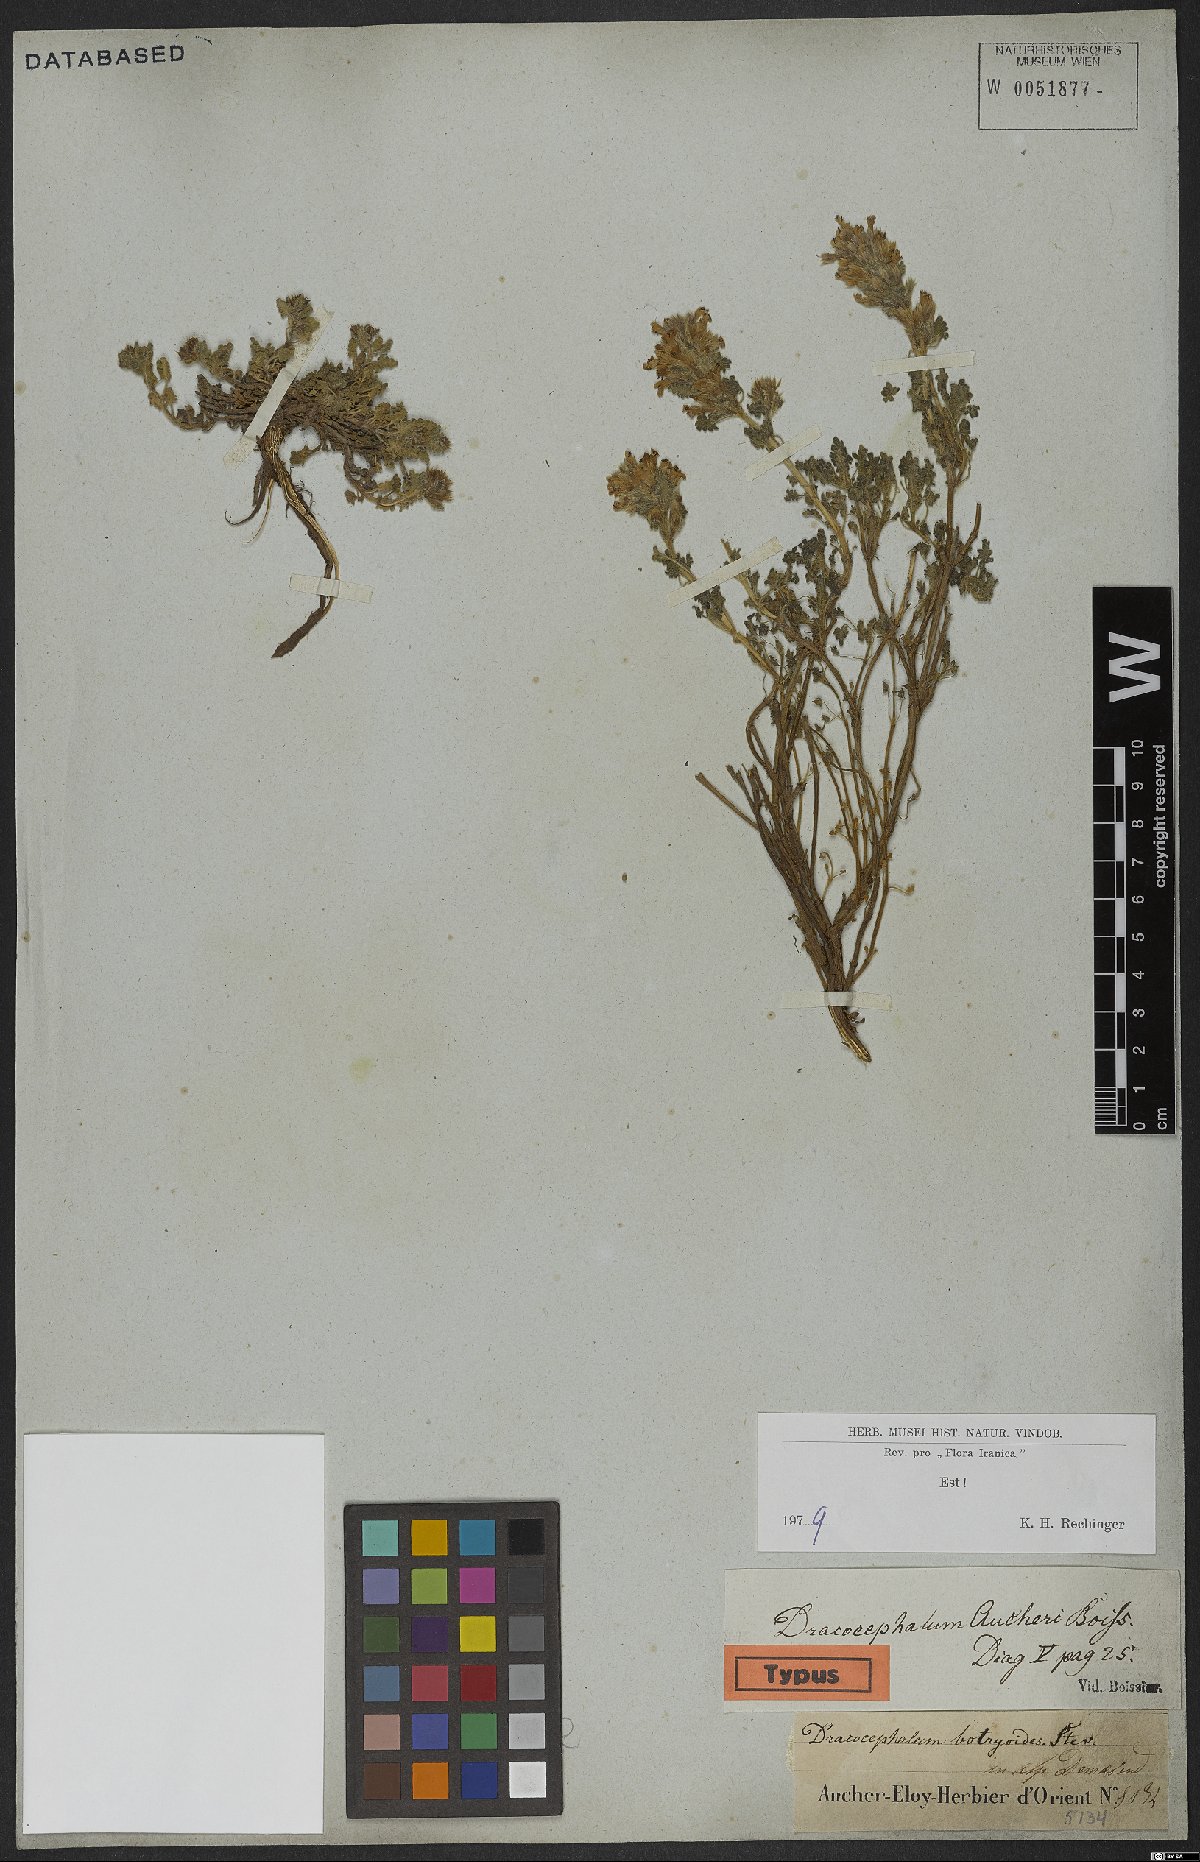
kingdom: Plantae
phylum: Tracheophyta
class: Magnoliopsida
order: Lamiales
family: Lamiaceae
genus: Dracocephalum
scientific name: Dracocephalum aucheri
